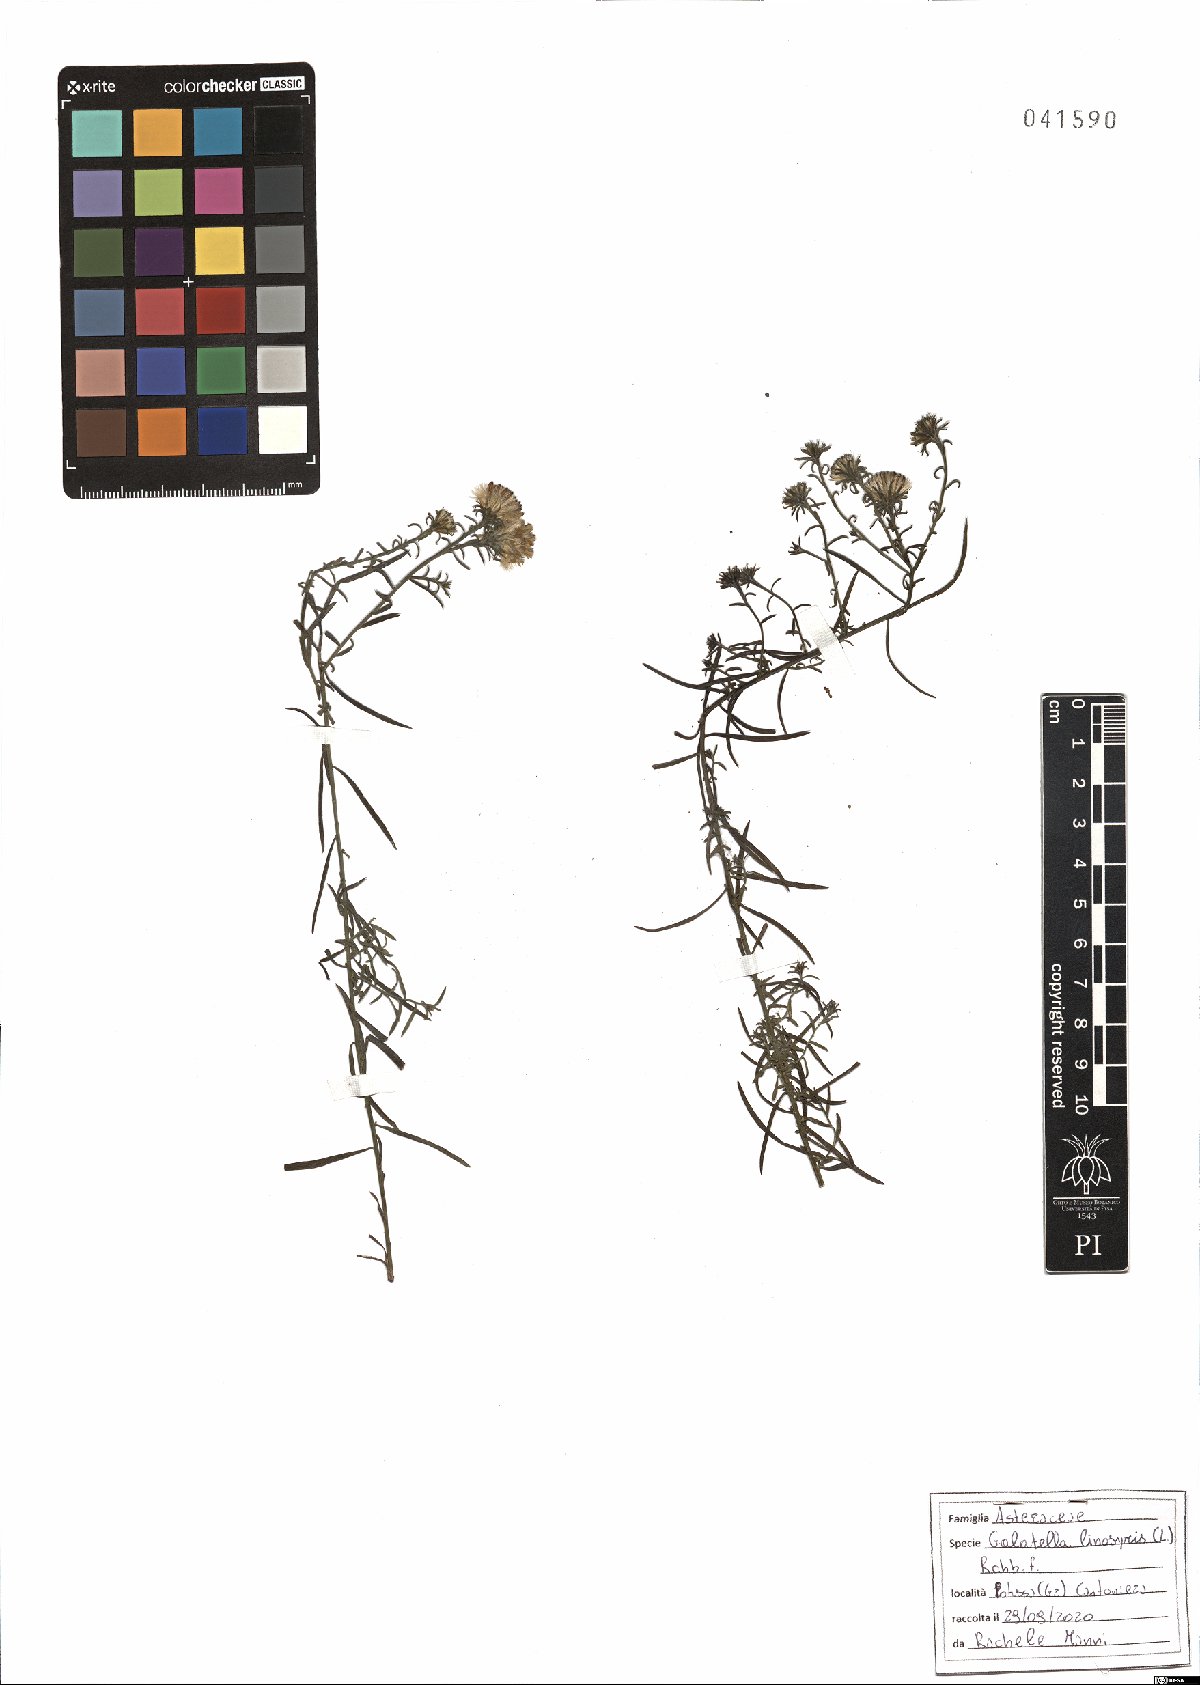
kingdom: Plantae
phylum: Tracheophyta
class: Magnoliopsida
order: Asterales
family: Asteraceae
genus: Galatella
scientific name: Galatella linosyris
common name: Goldilocks aster
